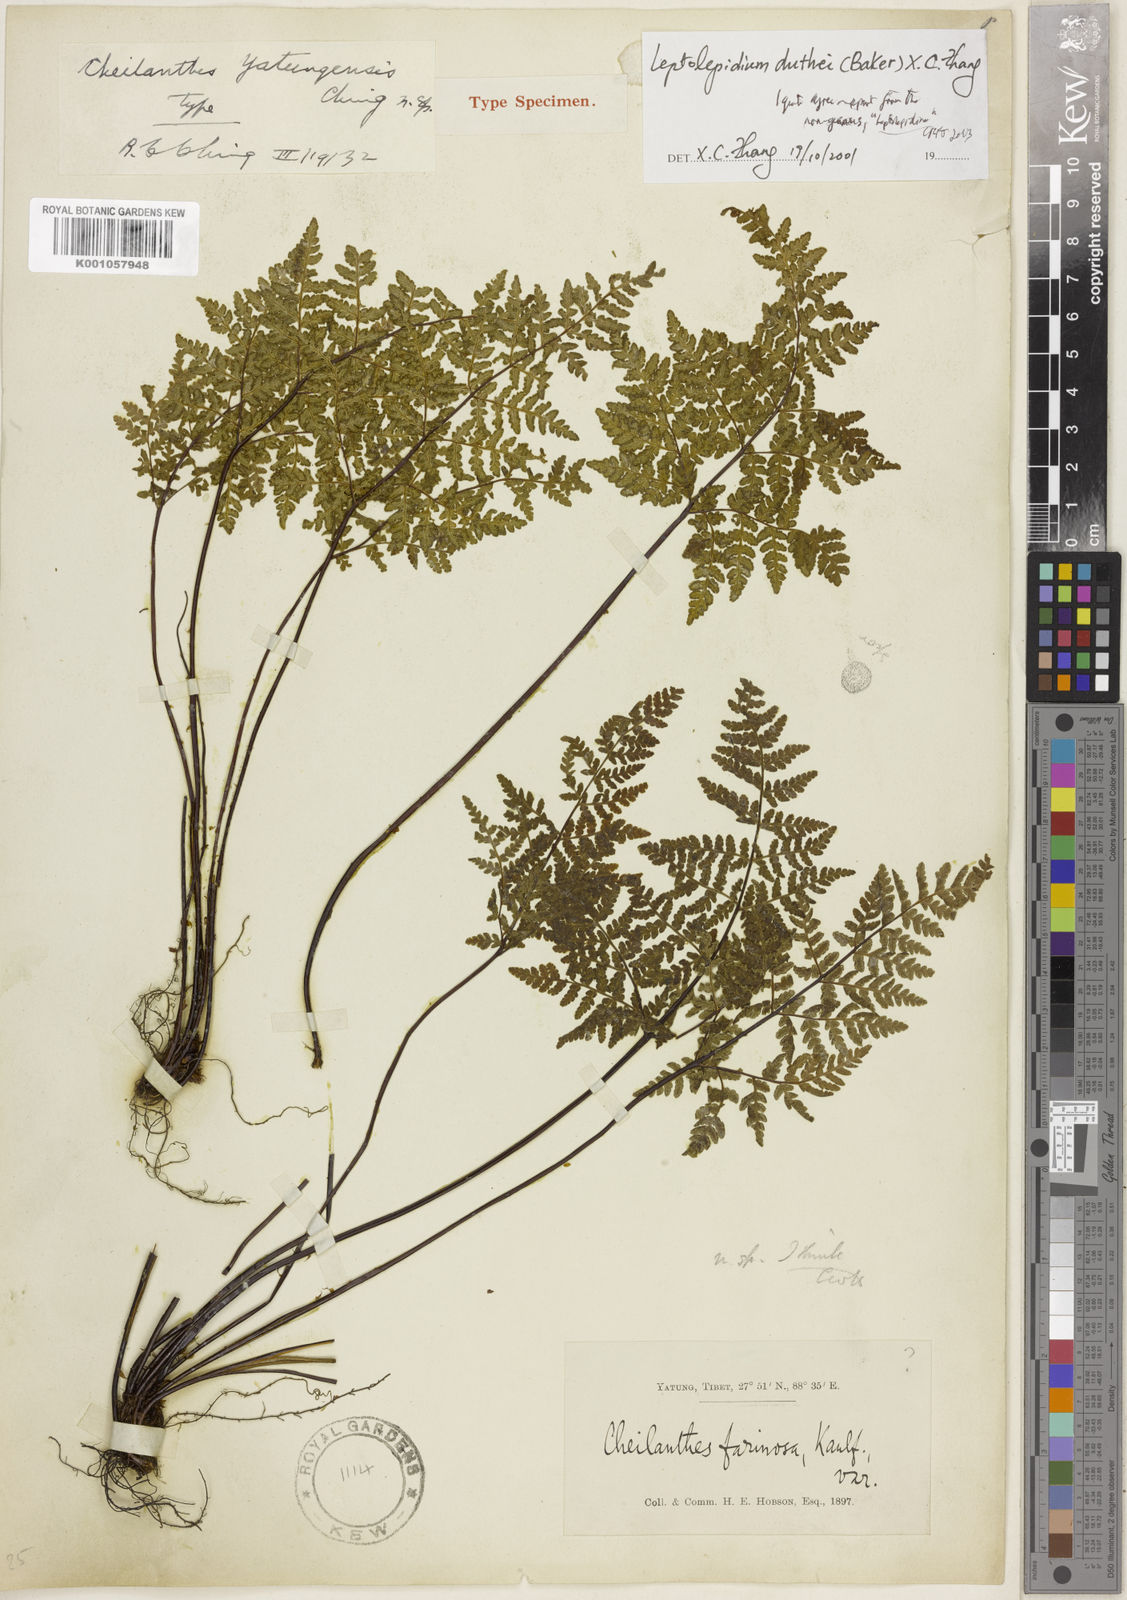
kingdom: Plantae
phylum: Tracheophyta
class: Polypodiopsida
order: Polypodiales
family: Pteridaceae
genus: Cheilanthes
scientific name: Cheilanthes
